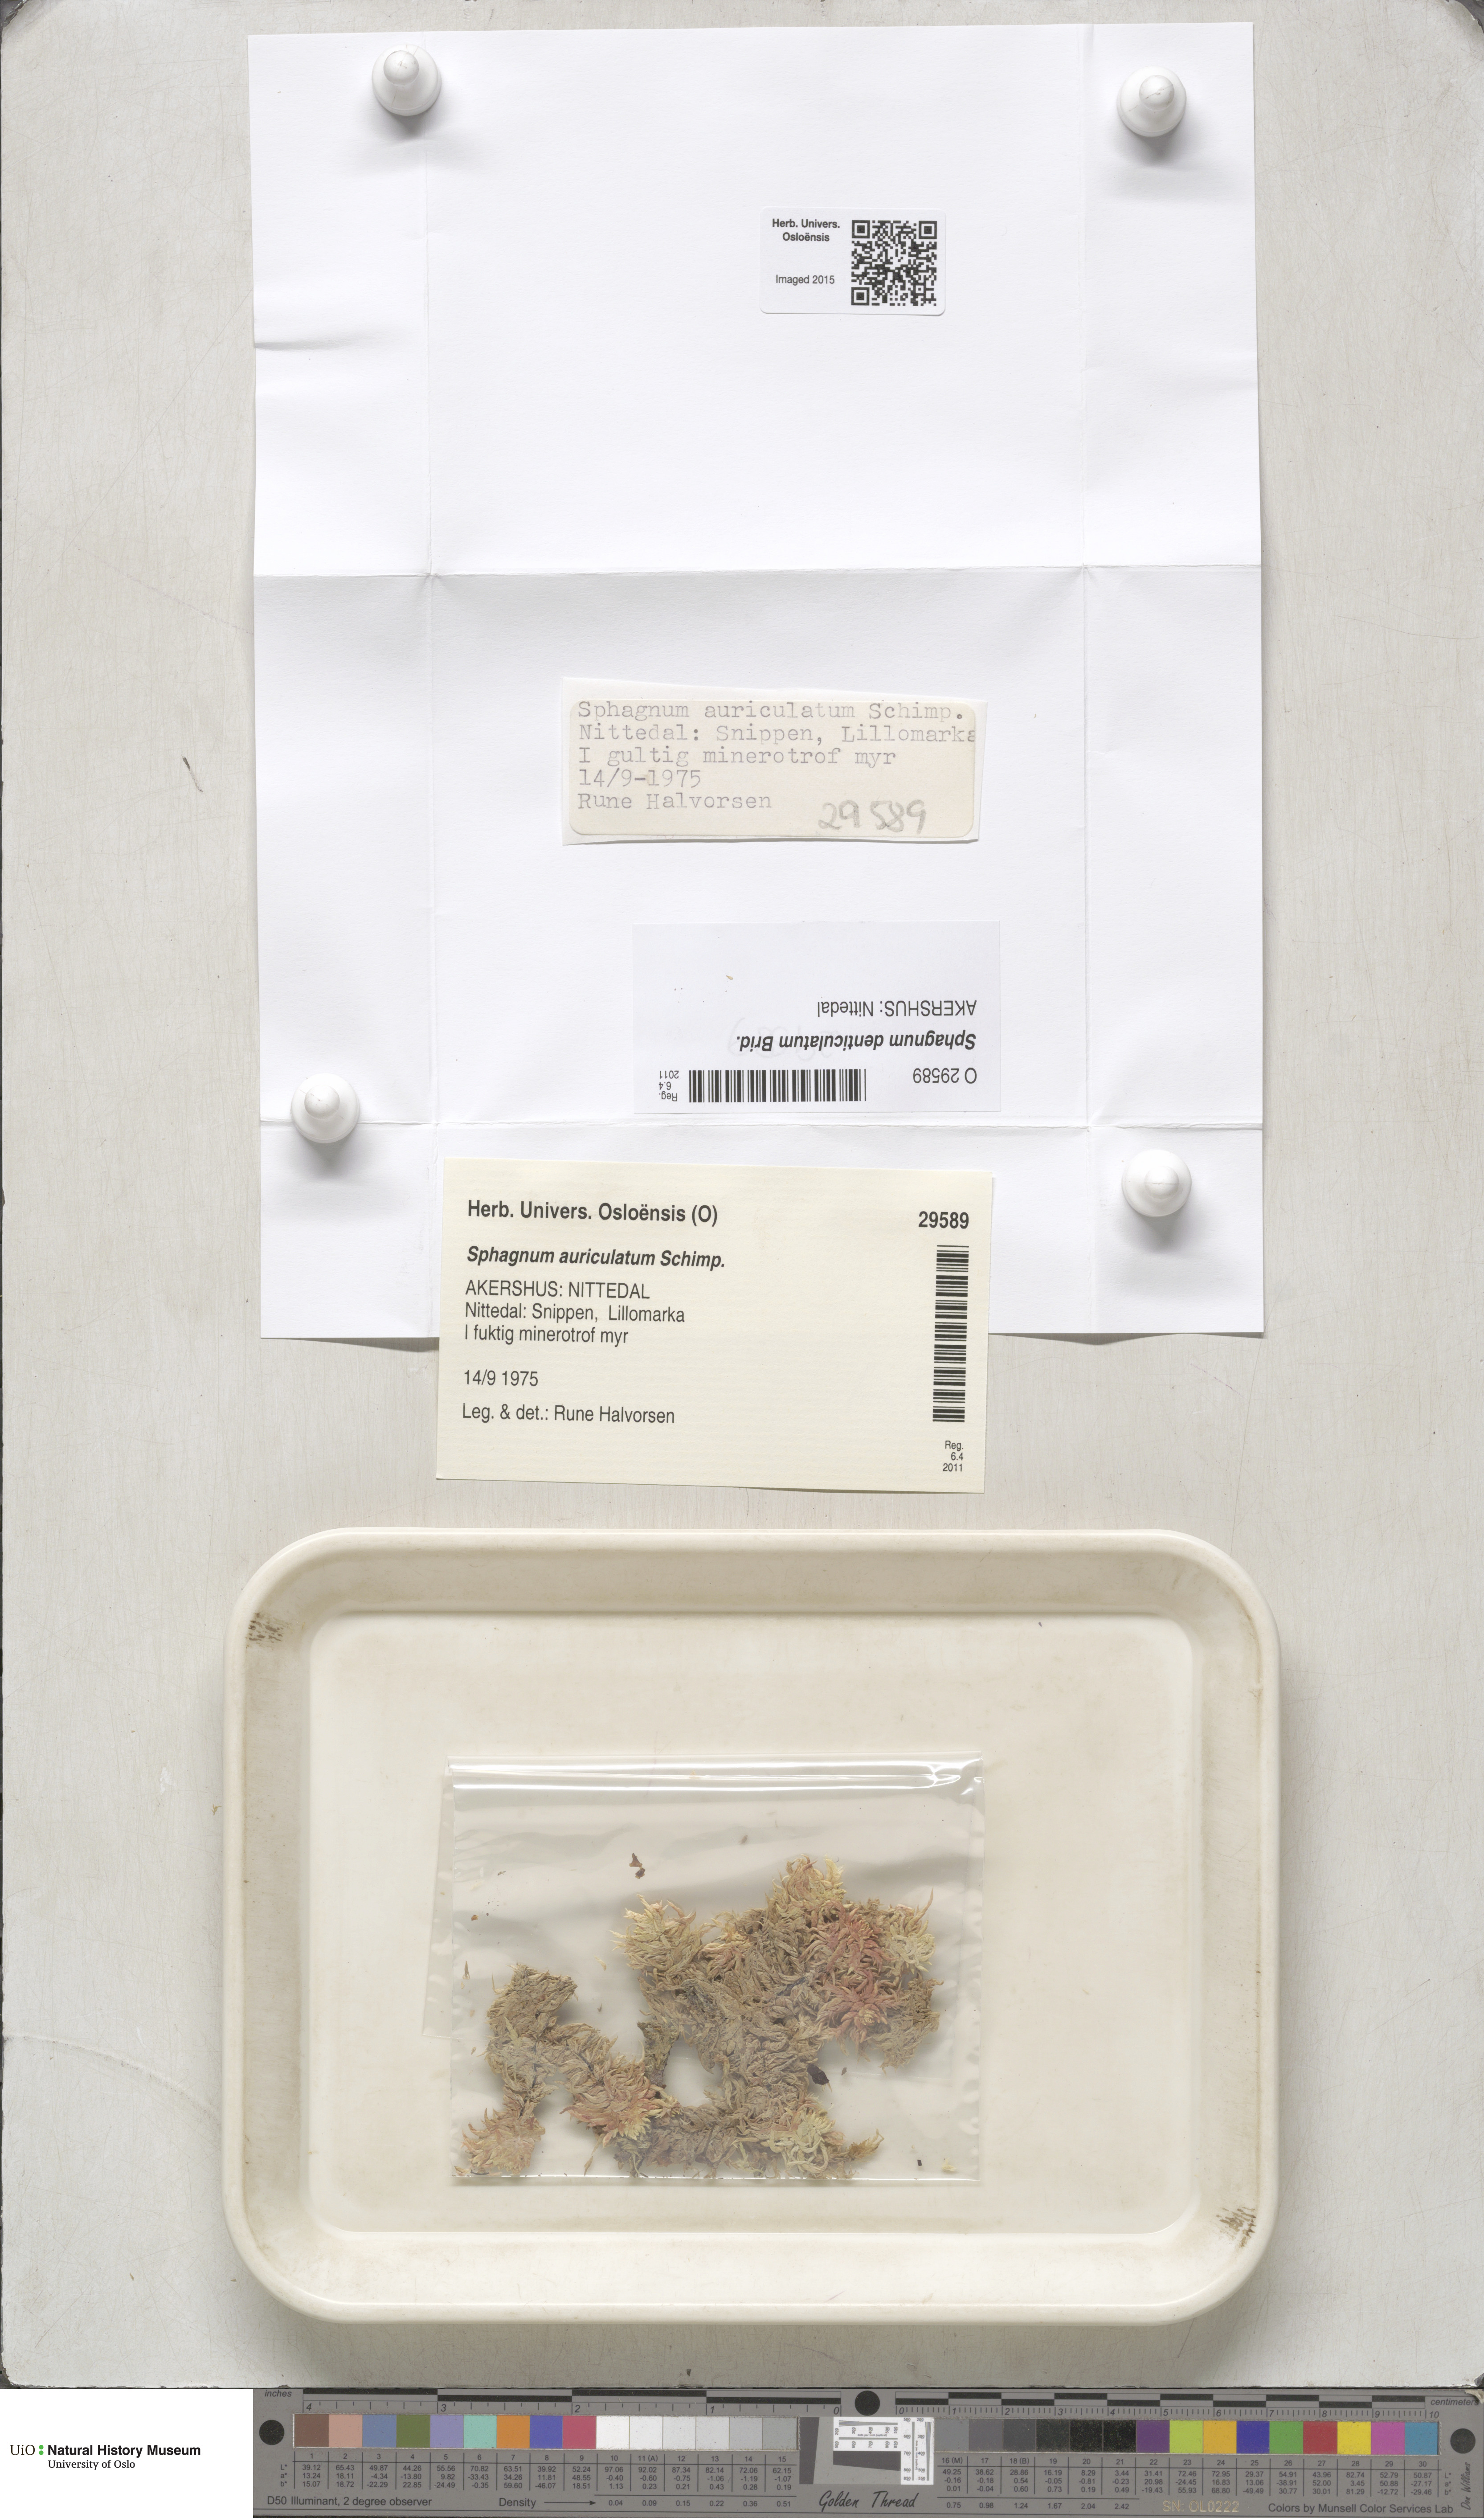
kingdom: Plantae
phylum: Bryophyta
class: Sphagnopsida
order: Sphagnales
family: Sphagnaceae
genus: Sphagnum
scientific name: Sphagnum denticulatum
